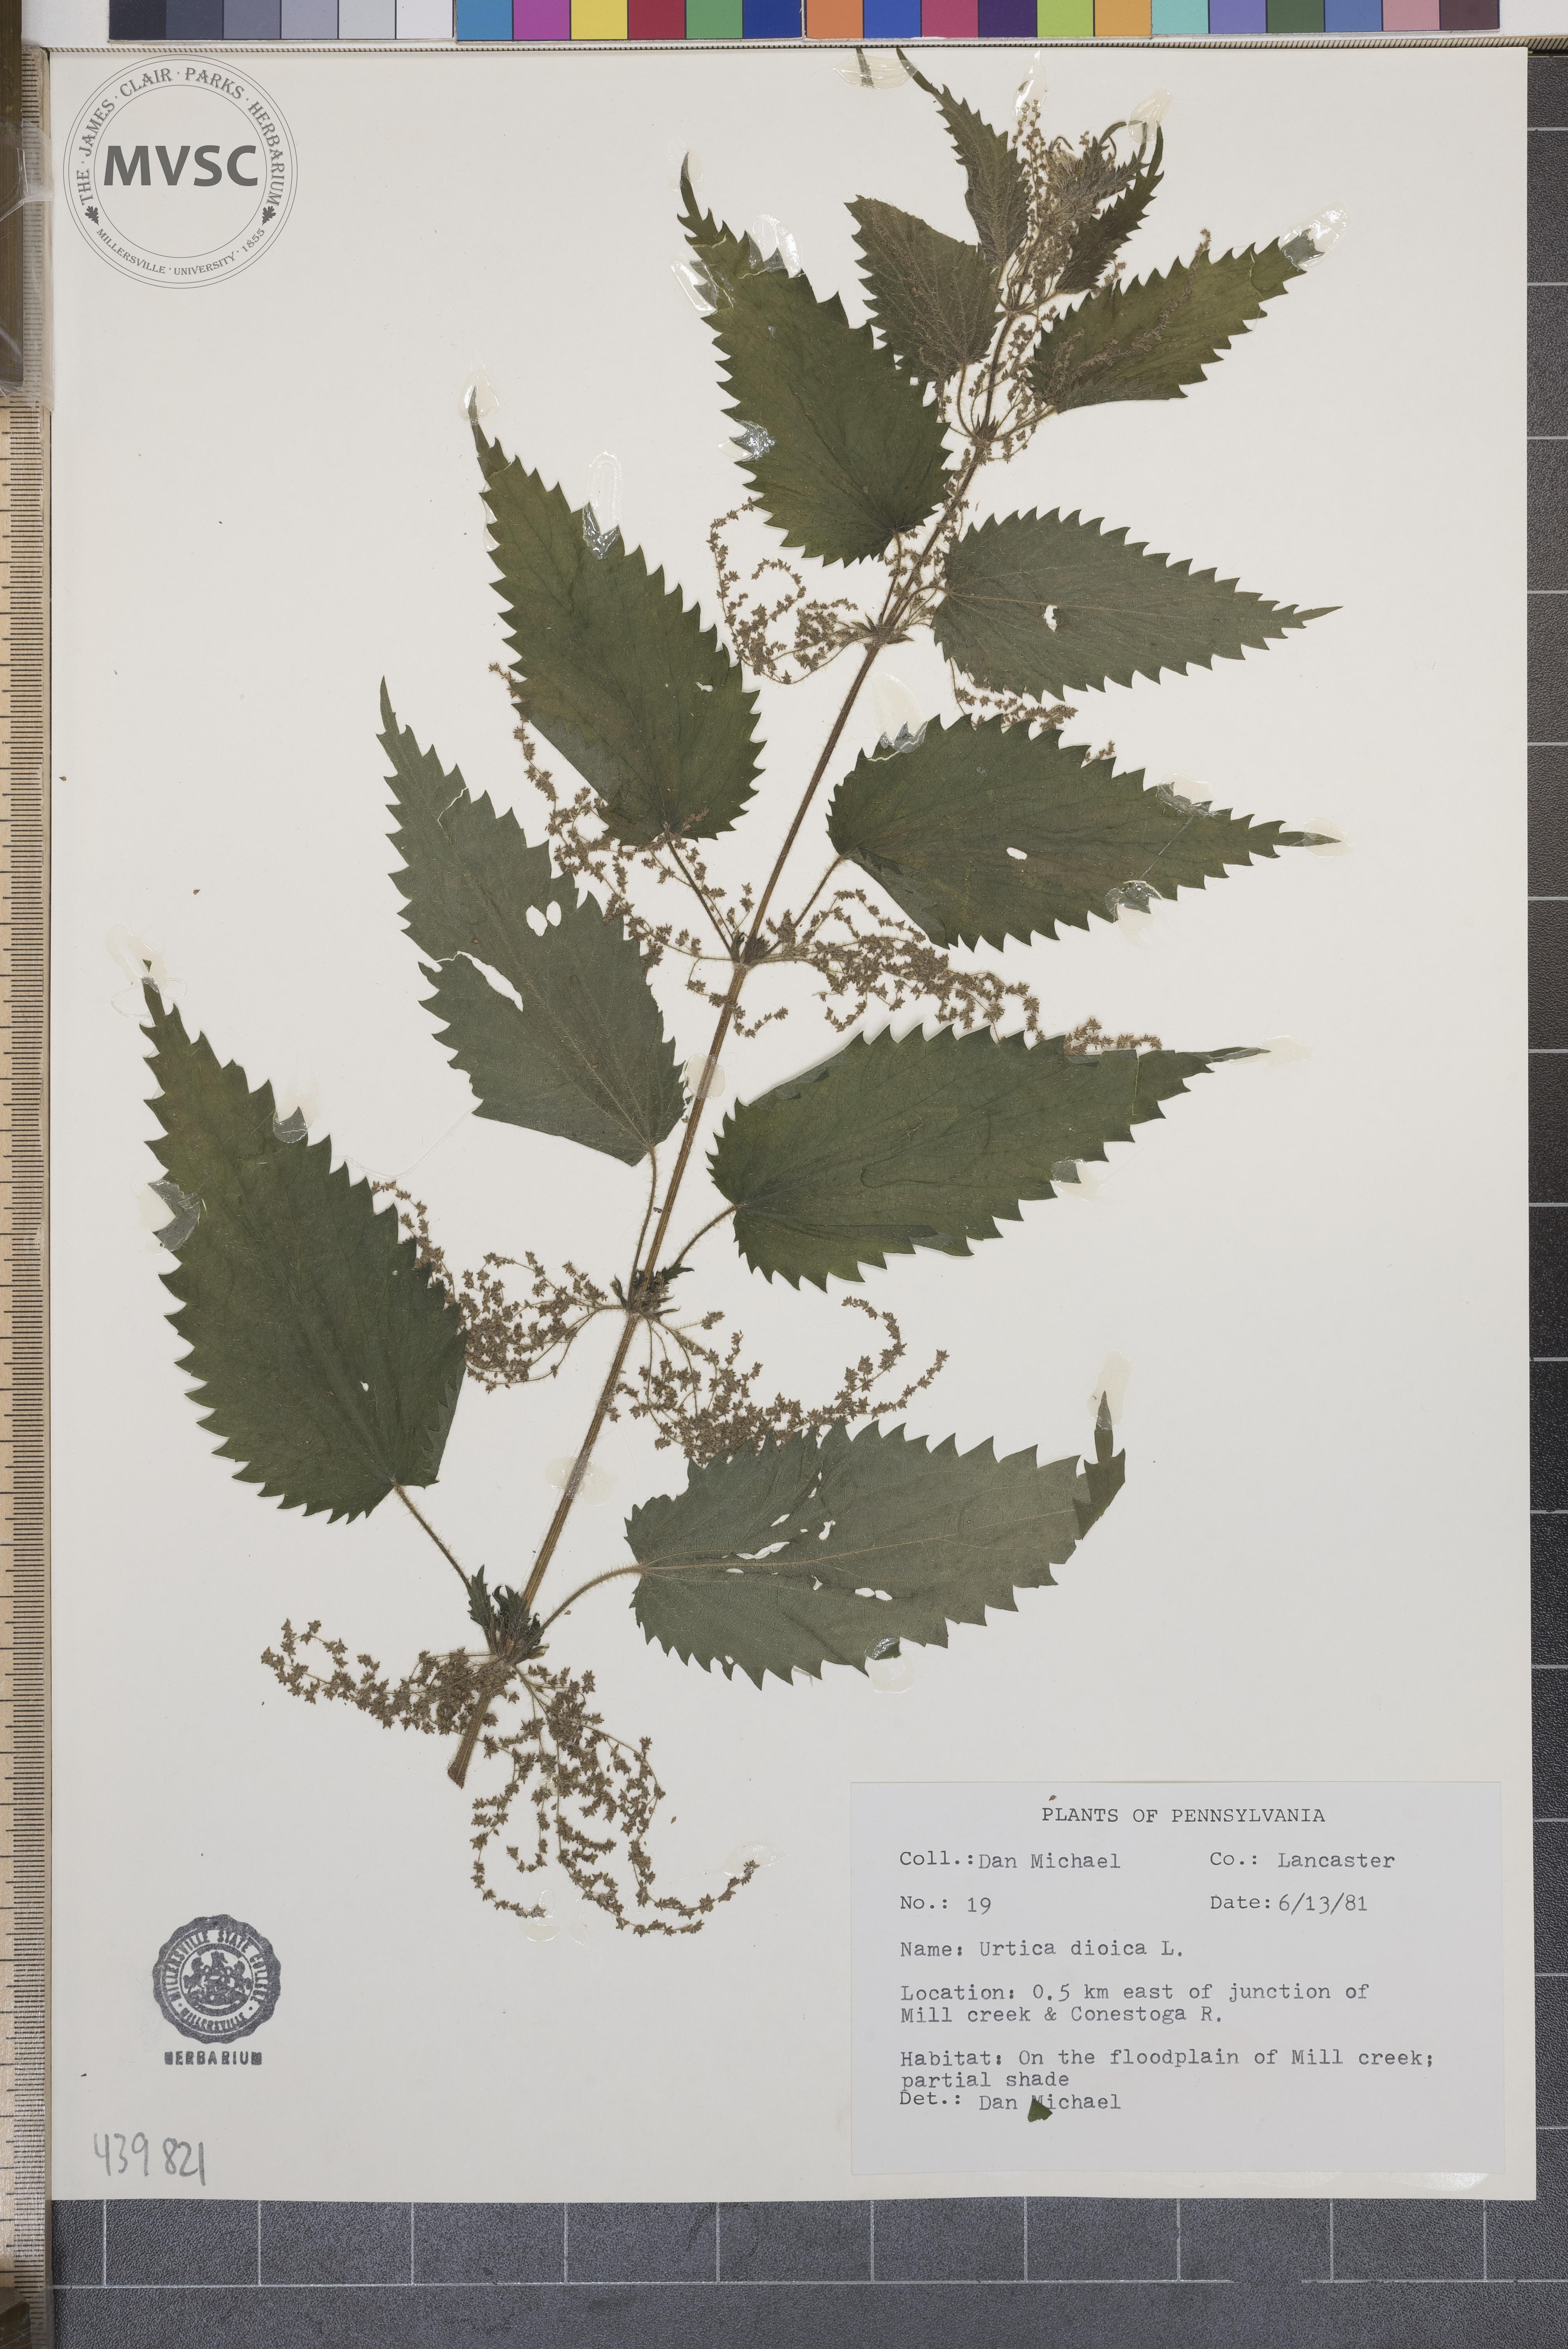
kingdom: Plantae
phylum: Tracheophyta
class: Magnoliopsida
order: Rosales
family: Urticaceae
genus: Urtica
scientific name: Urtica dioica
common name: Common nettle
